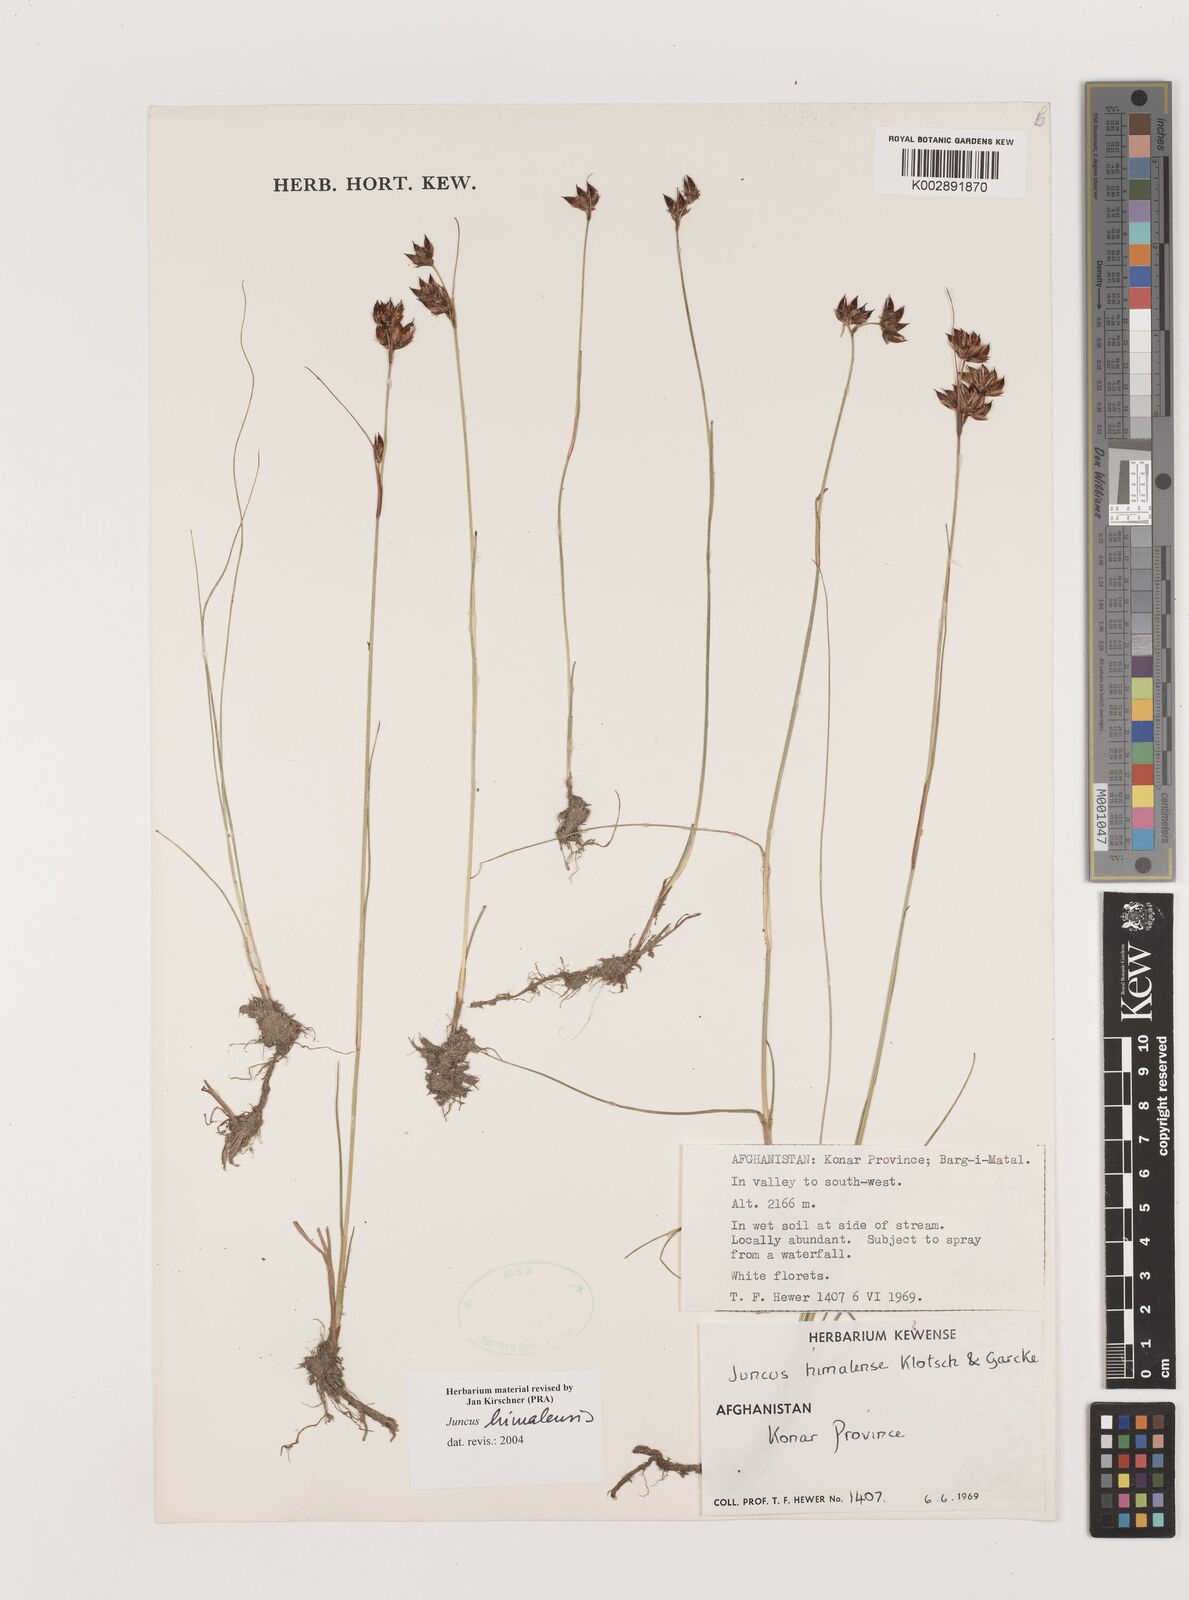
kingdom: Plantae
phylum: Tracheophyta
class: Liliopsida
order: Poales
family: Juncaceae
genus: Juncus
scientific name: Juncus himalensis
